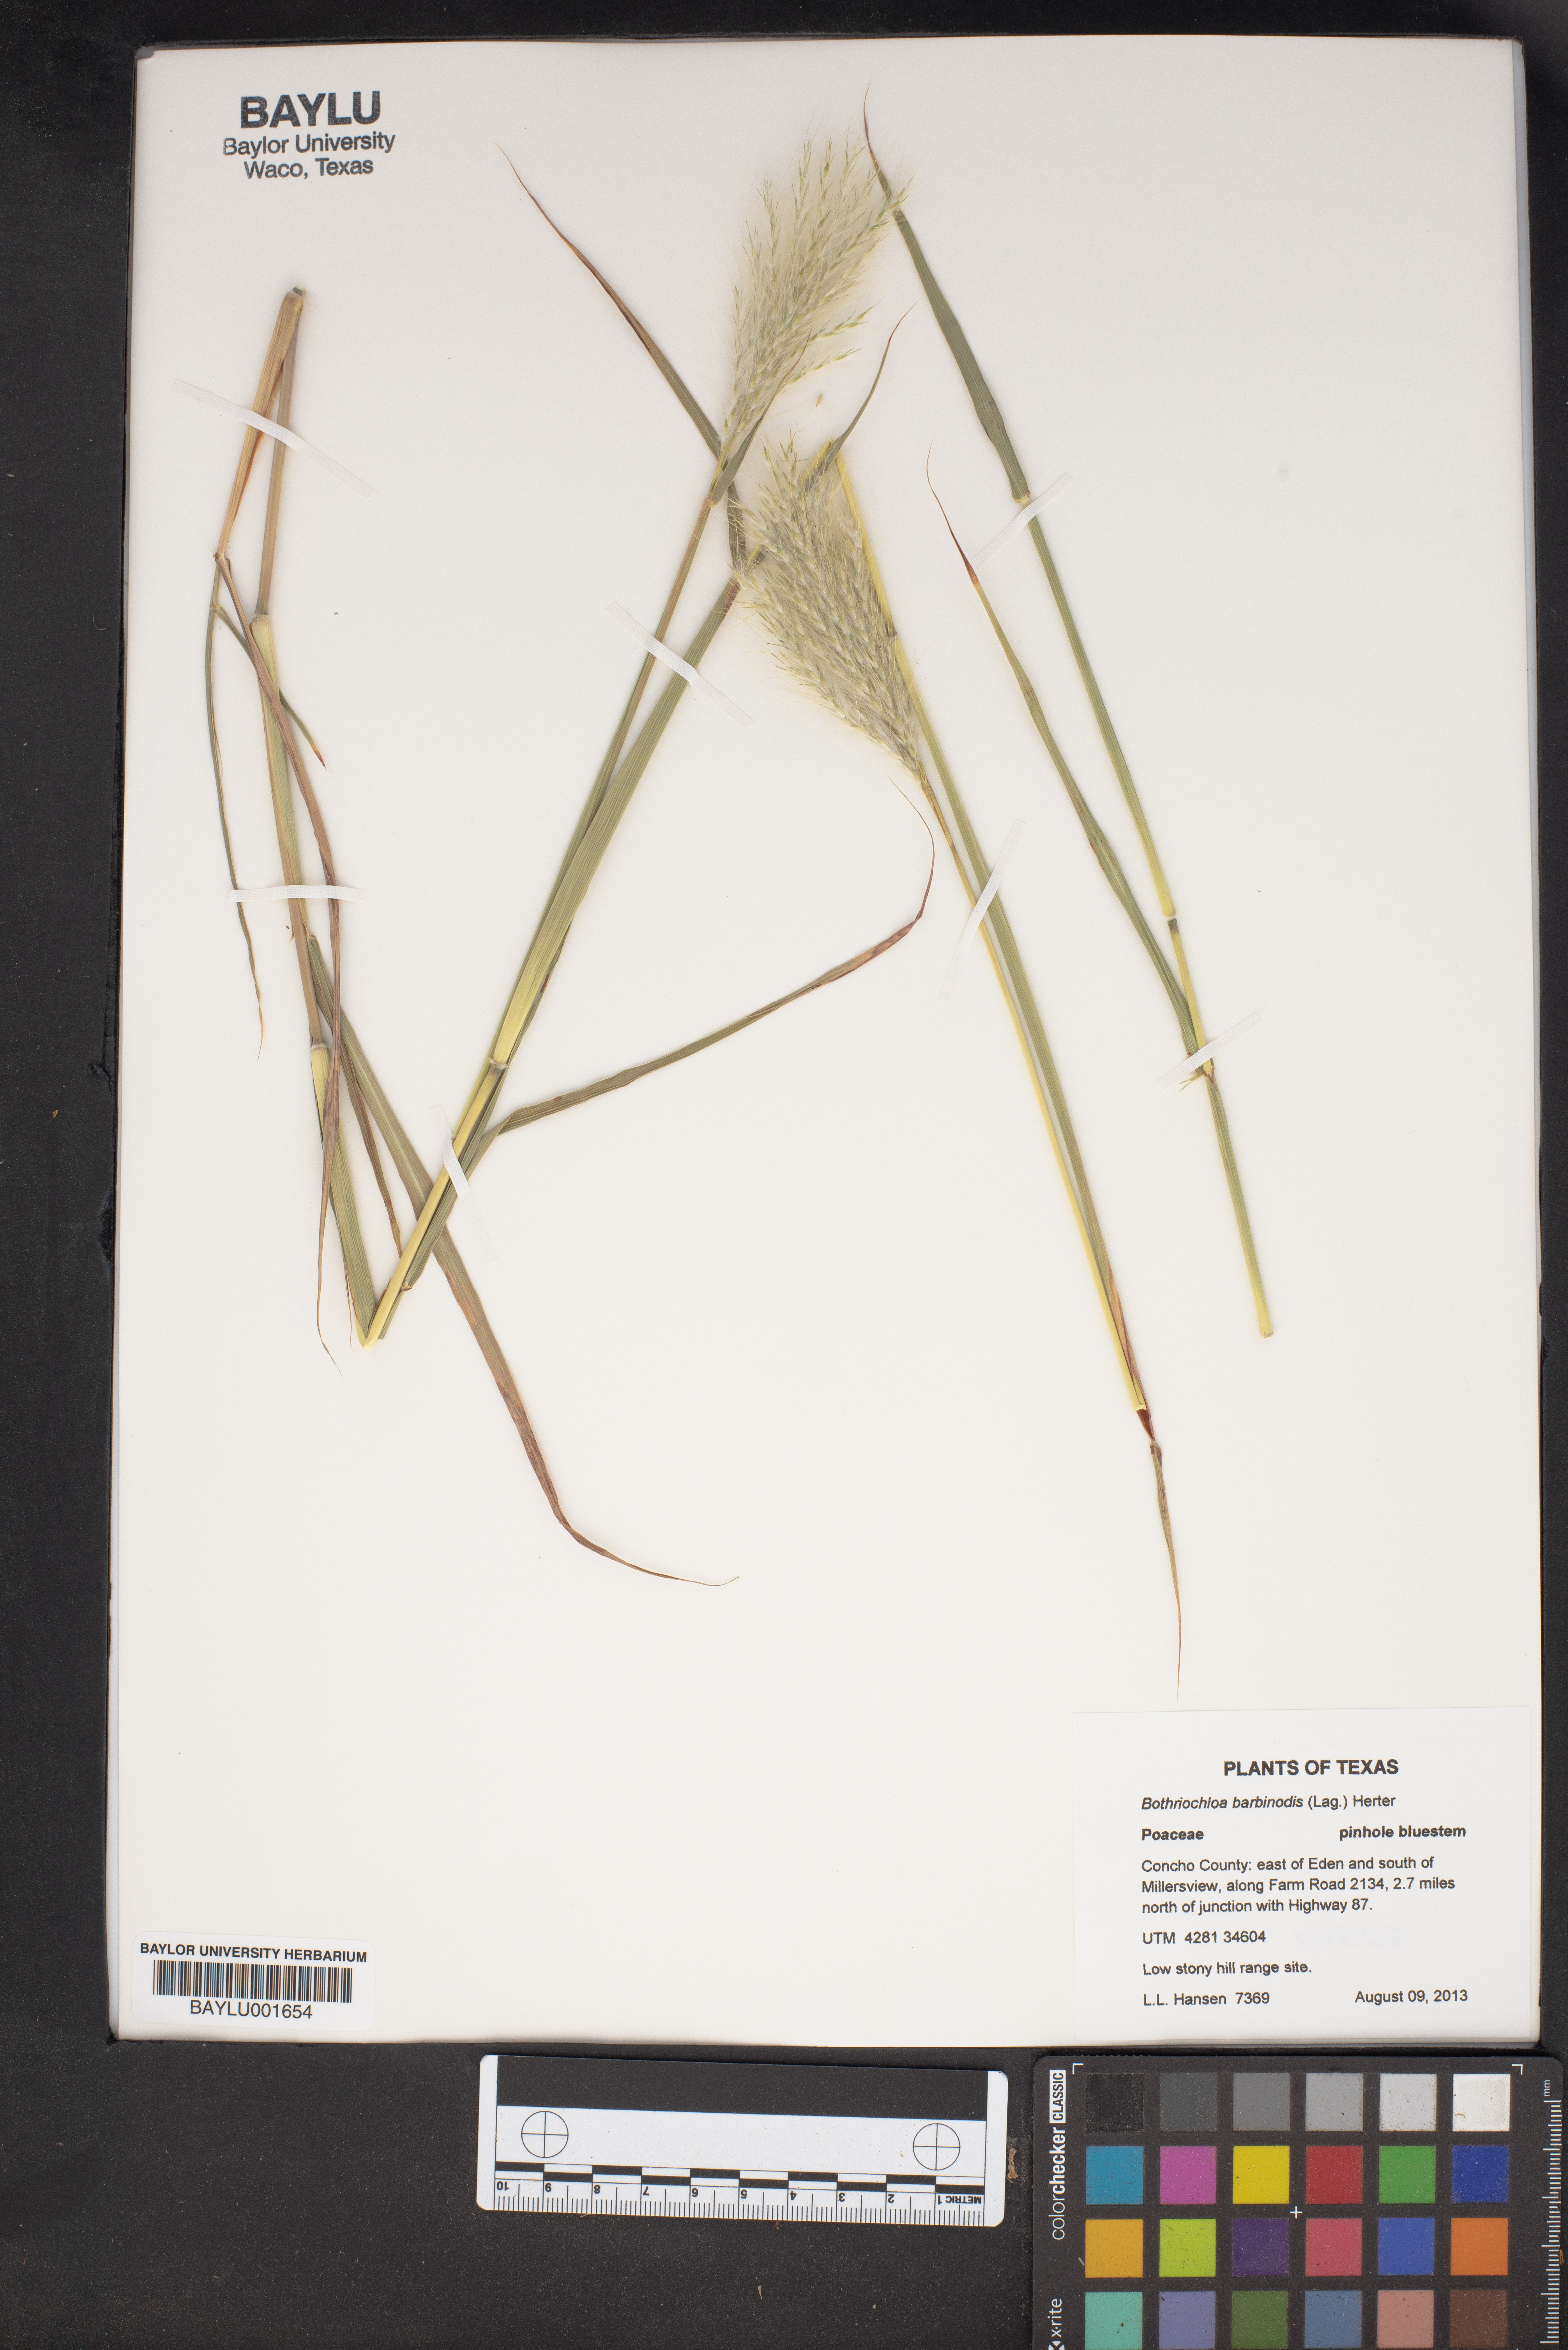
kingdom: Plantae
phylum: Tracheophyta
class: Liliopsida
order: Poales
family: Poaceae
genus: Bothriochloa
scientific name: Bothriochloa barbinodis
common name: Cane bluestem
